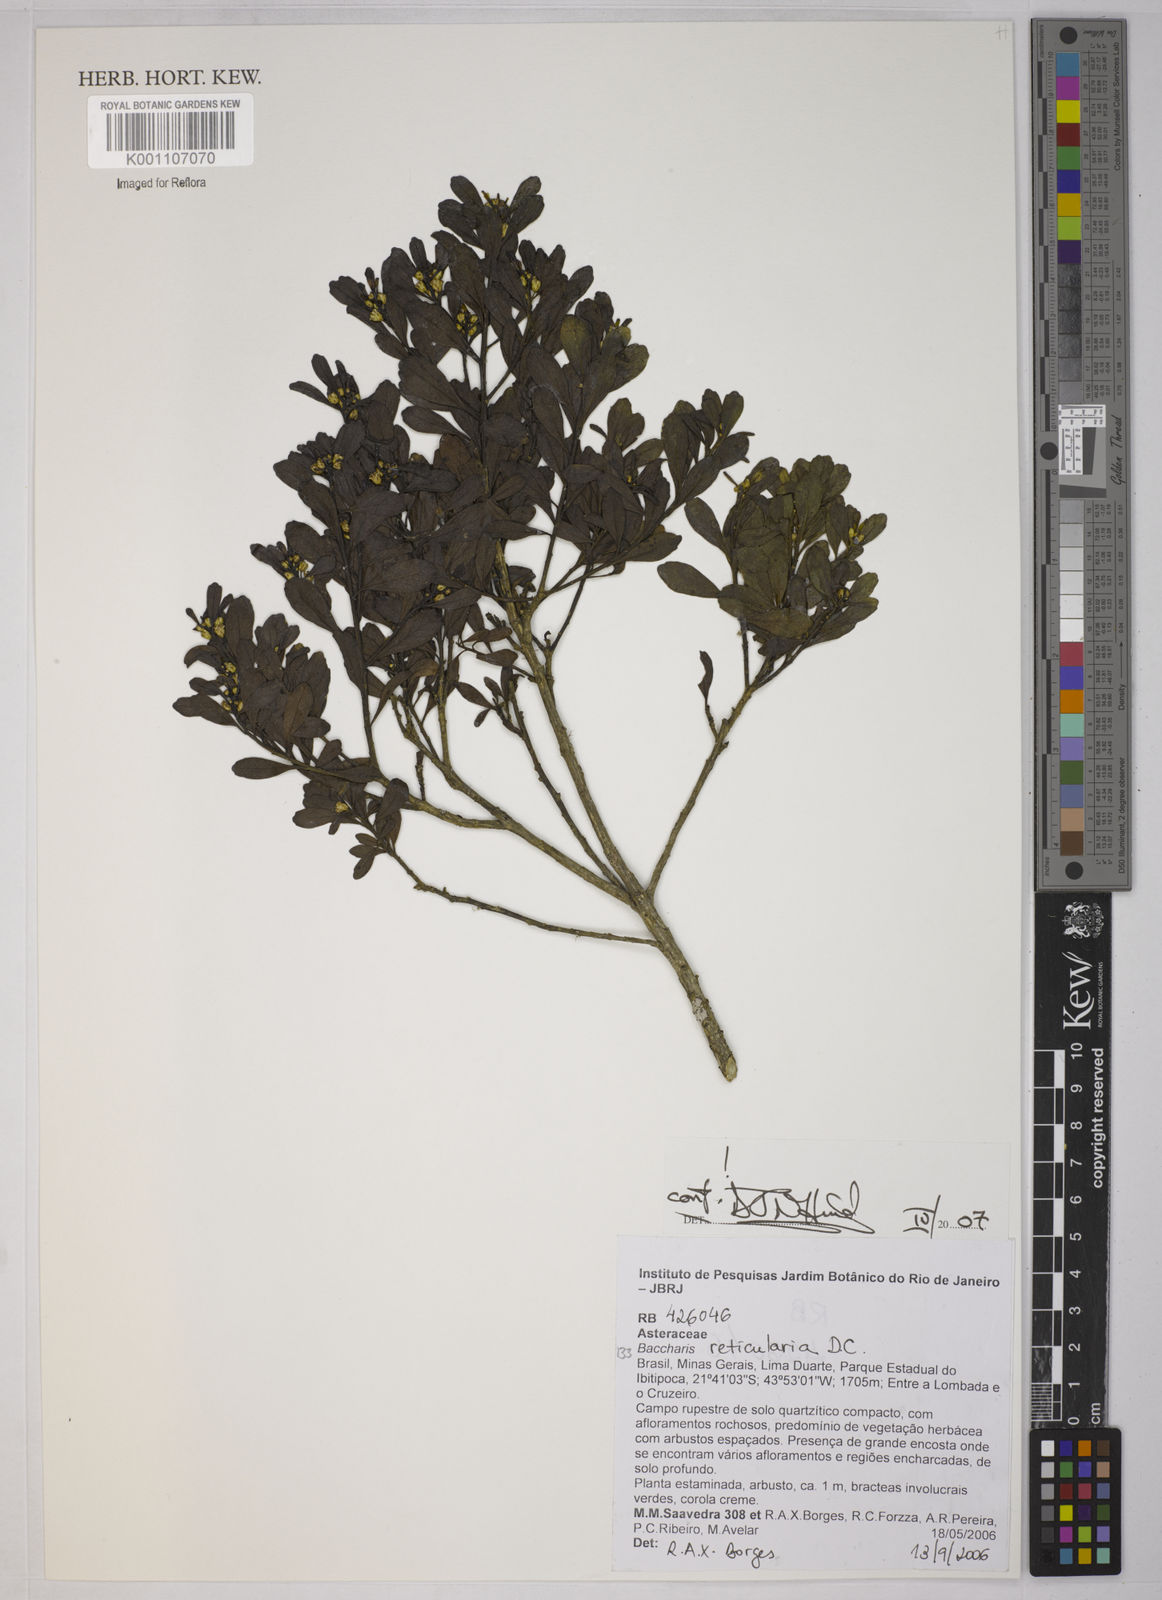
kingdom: Plantae
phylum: Tracheophyta
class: Magnoliopsida
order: Asterales
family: Asteraceae
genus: Baccharis
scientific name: Baccharis reticularia
